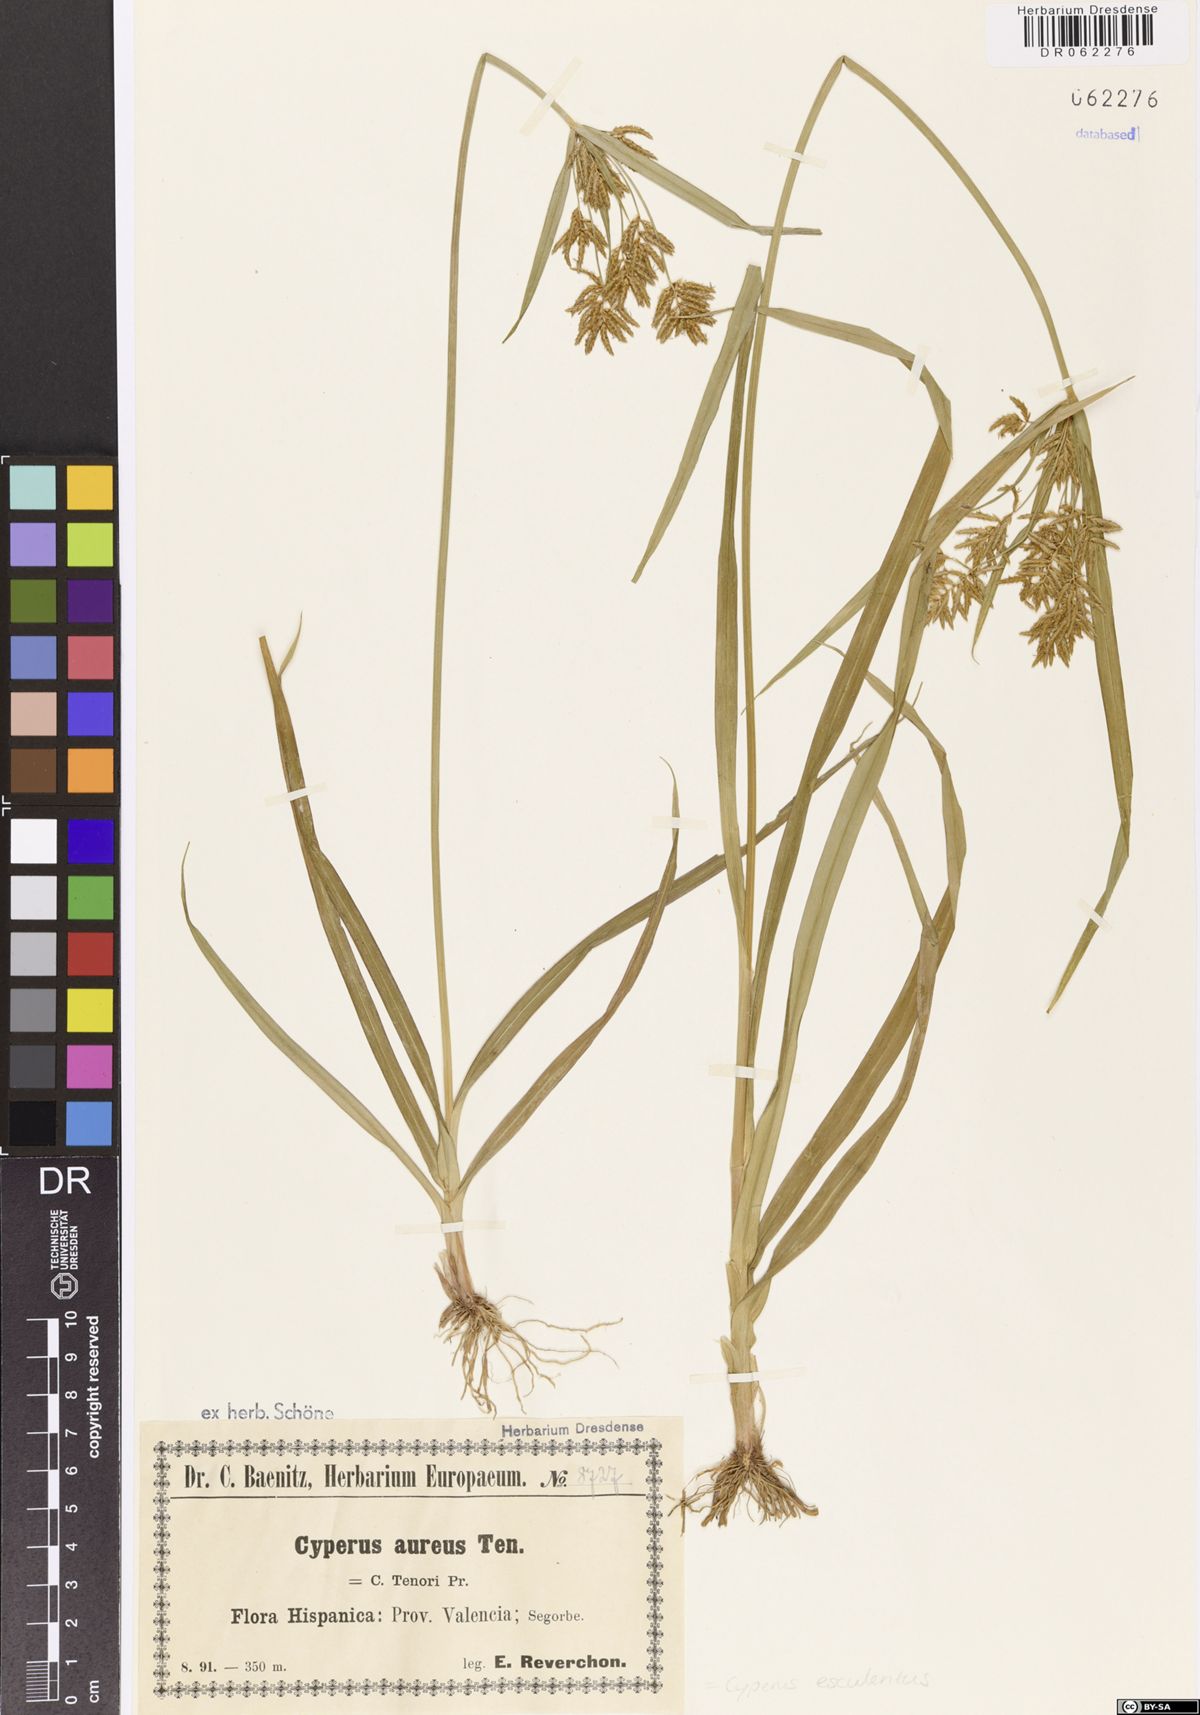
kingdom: Plantae
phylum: Tracheophyta
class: Liliopsida
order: Poales
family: Cyperaceae
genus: Cyperus
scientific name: Cyperus esculentus
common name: Yellow nutsedge
